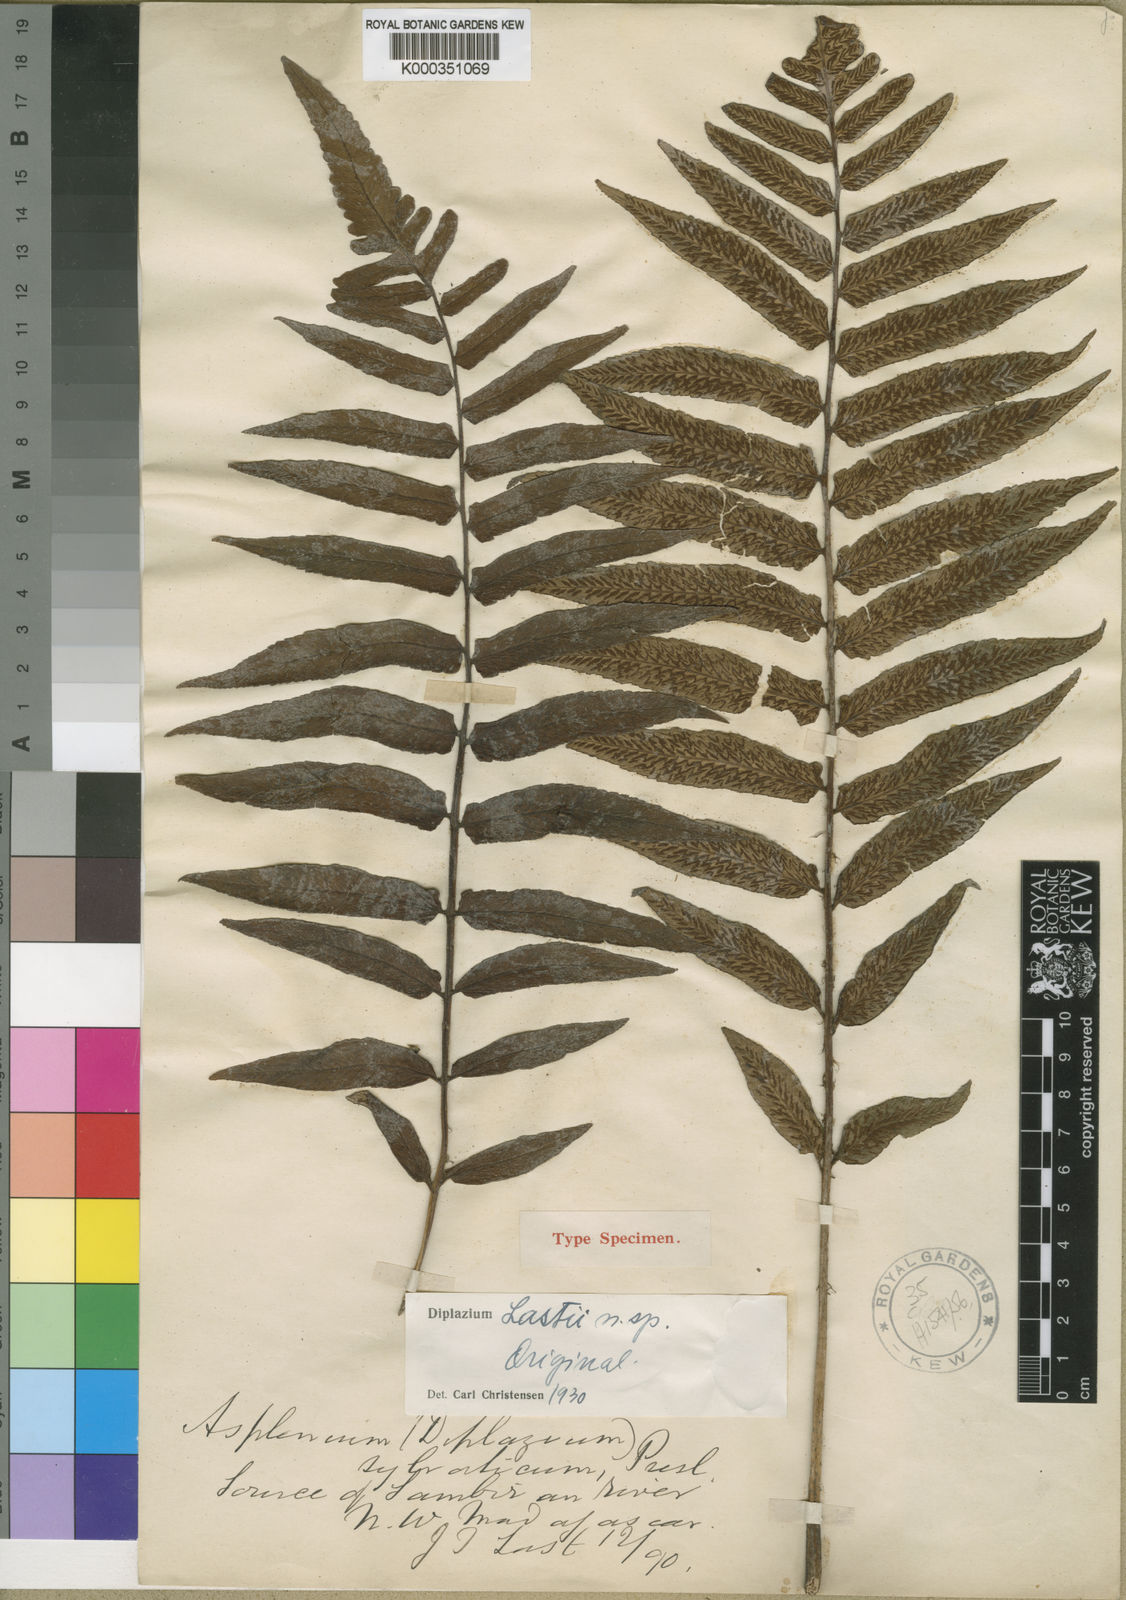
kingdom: Plantae
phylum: Tracheophyta
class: Polypodiopsida
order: Polypodiales
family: Athyriaceae
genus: Diplazium
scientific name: Diplazium proliferum
